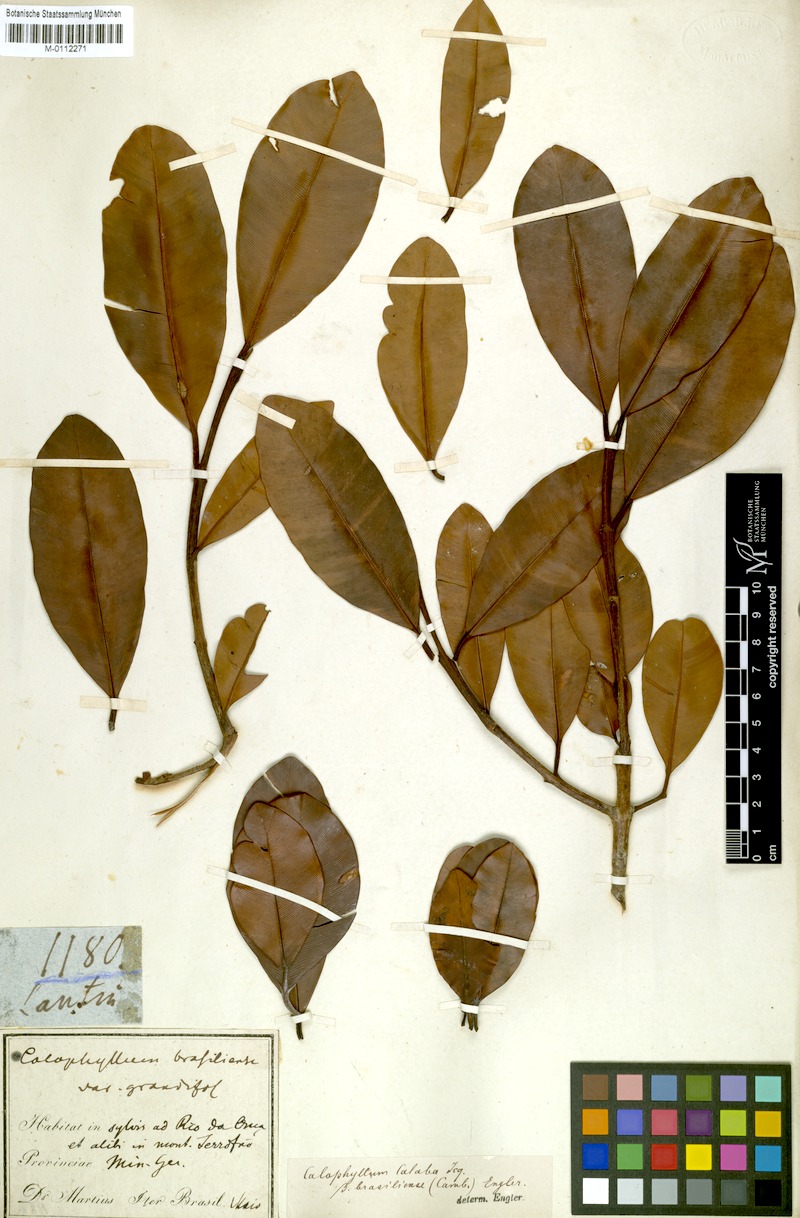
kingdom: Plantae
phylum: Tracheophyta
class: Magnoliopsida
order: Malpighiales
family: Calophyllaceae
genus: Calophyllum
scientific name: Calophyllum calaba
